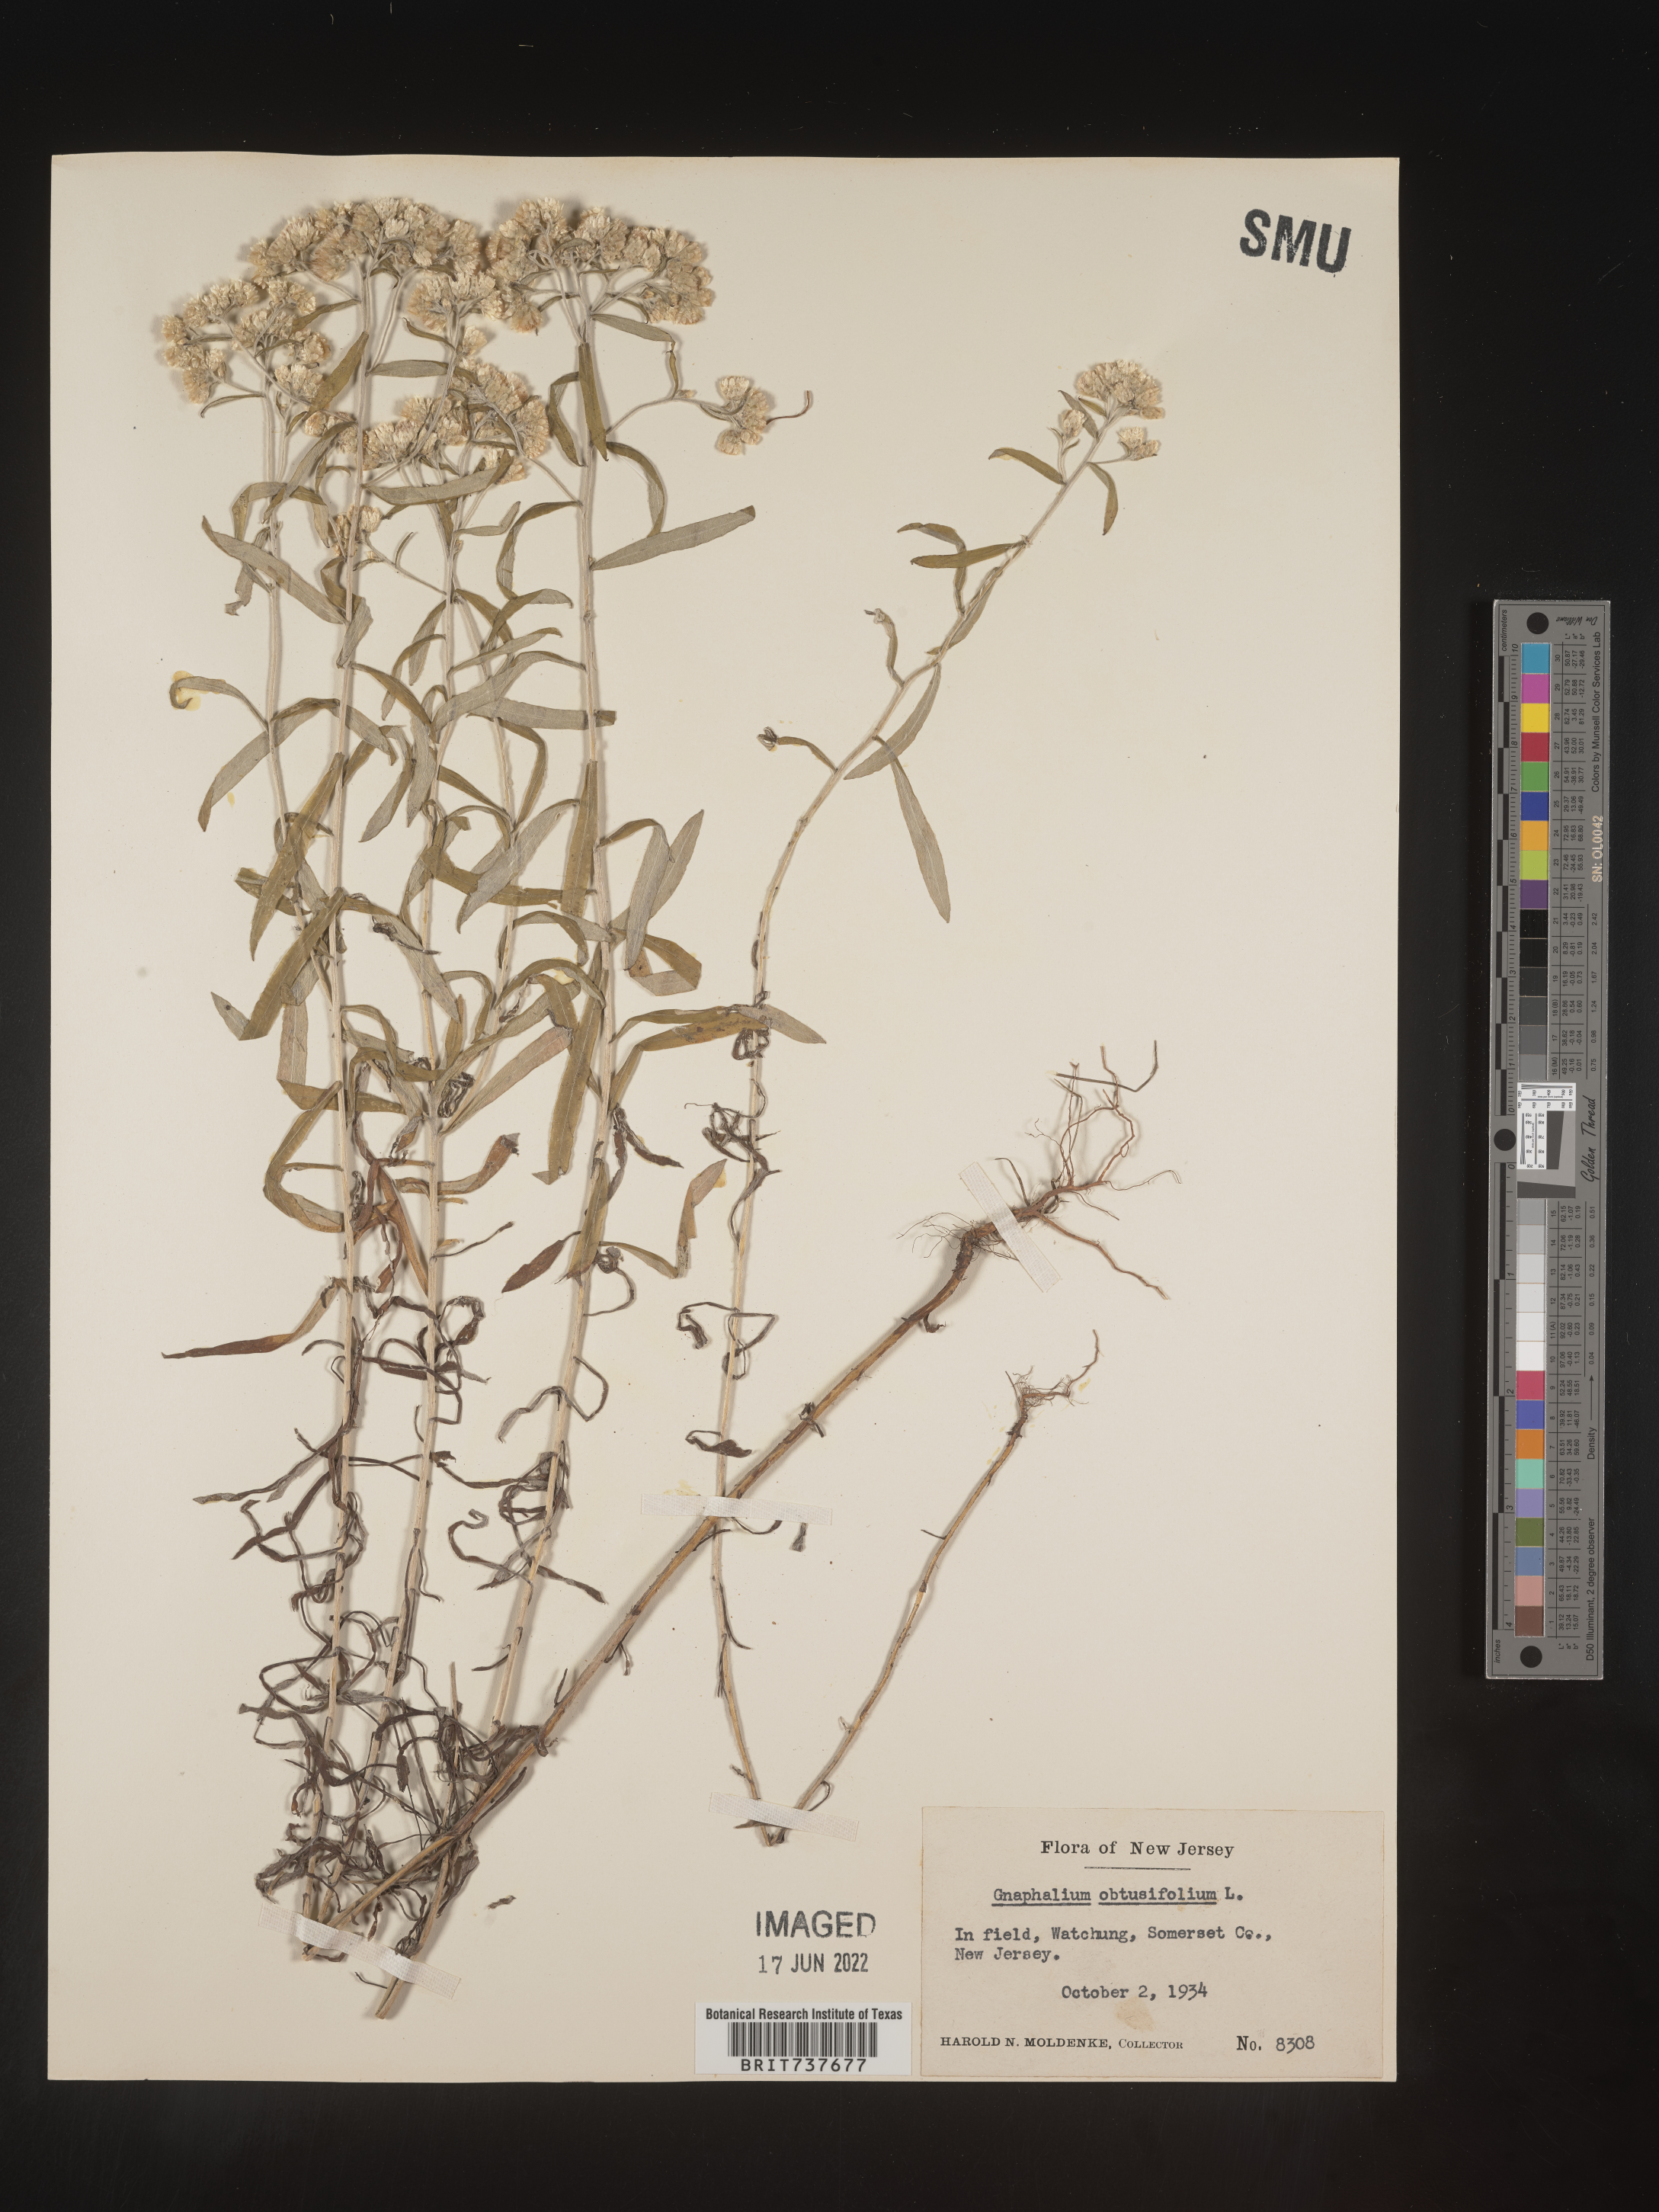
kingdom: Plantae
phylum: Tracheophyta
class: Magnoliopsida
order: Asterales
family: Asteraceae
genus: Pseudognaphalium
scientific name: Pseudognaphalium obtusifolium
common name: Eastern rabbit-tobacco
